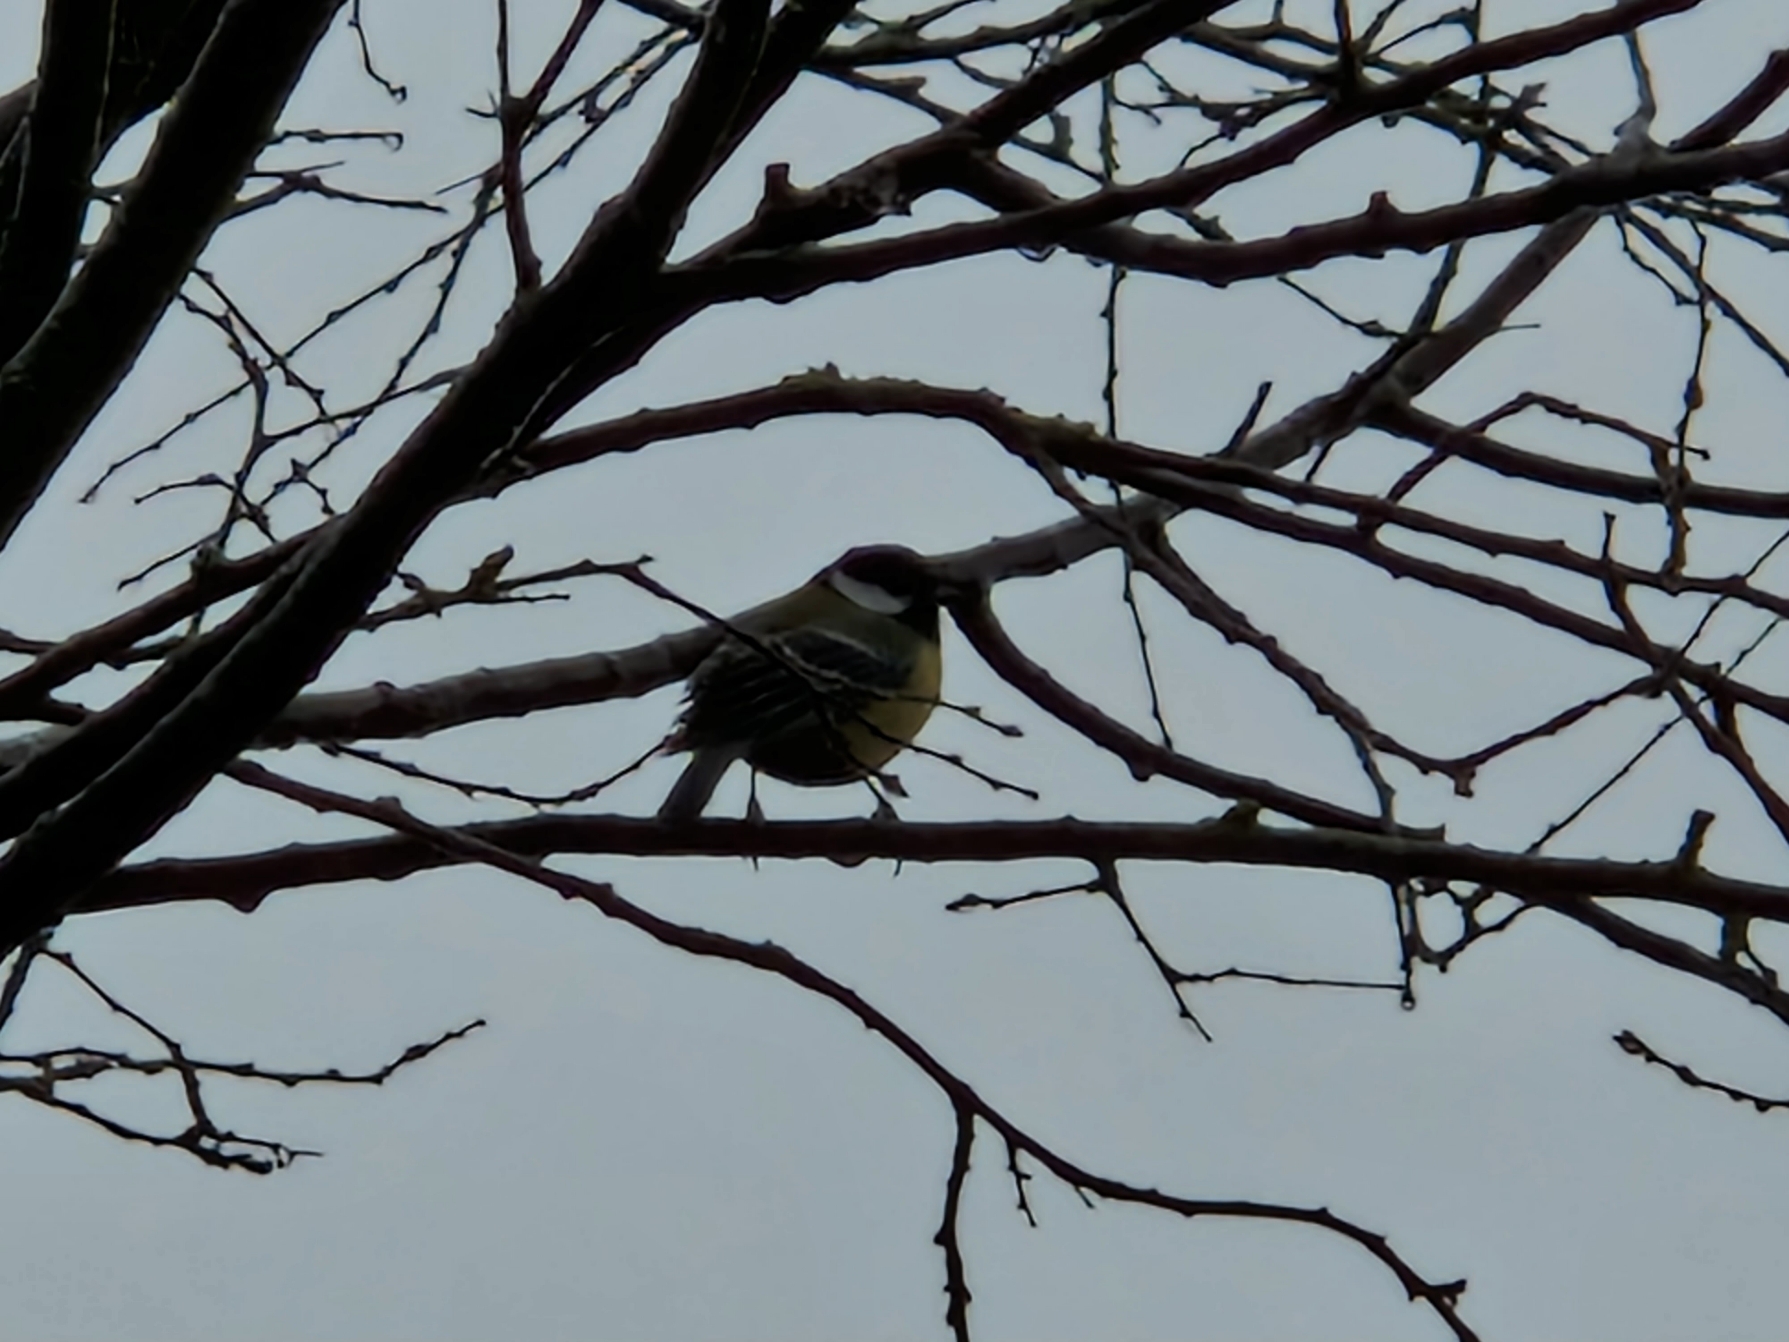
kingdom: Animalia
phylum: Chordata
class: Aves
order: Passeriformes
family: Paridae
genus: Parus
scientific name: Parus major
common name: Musvit
